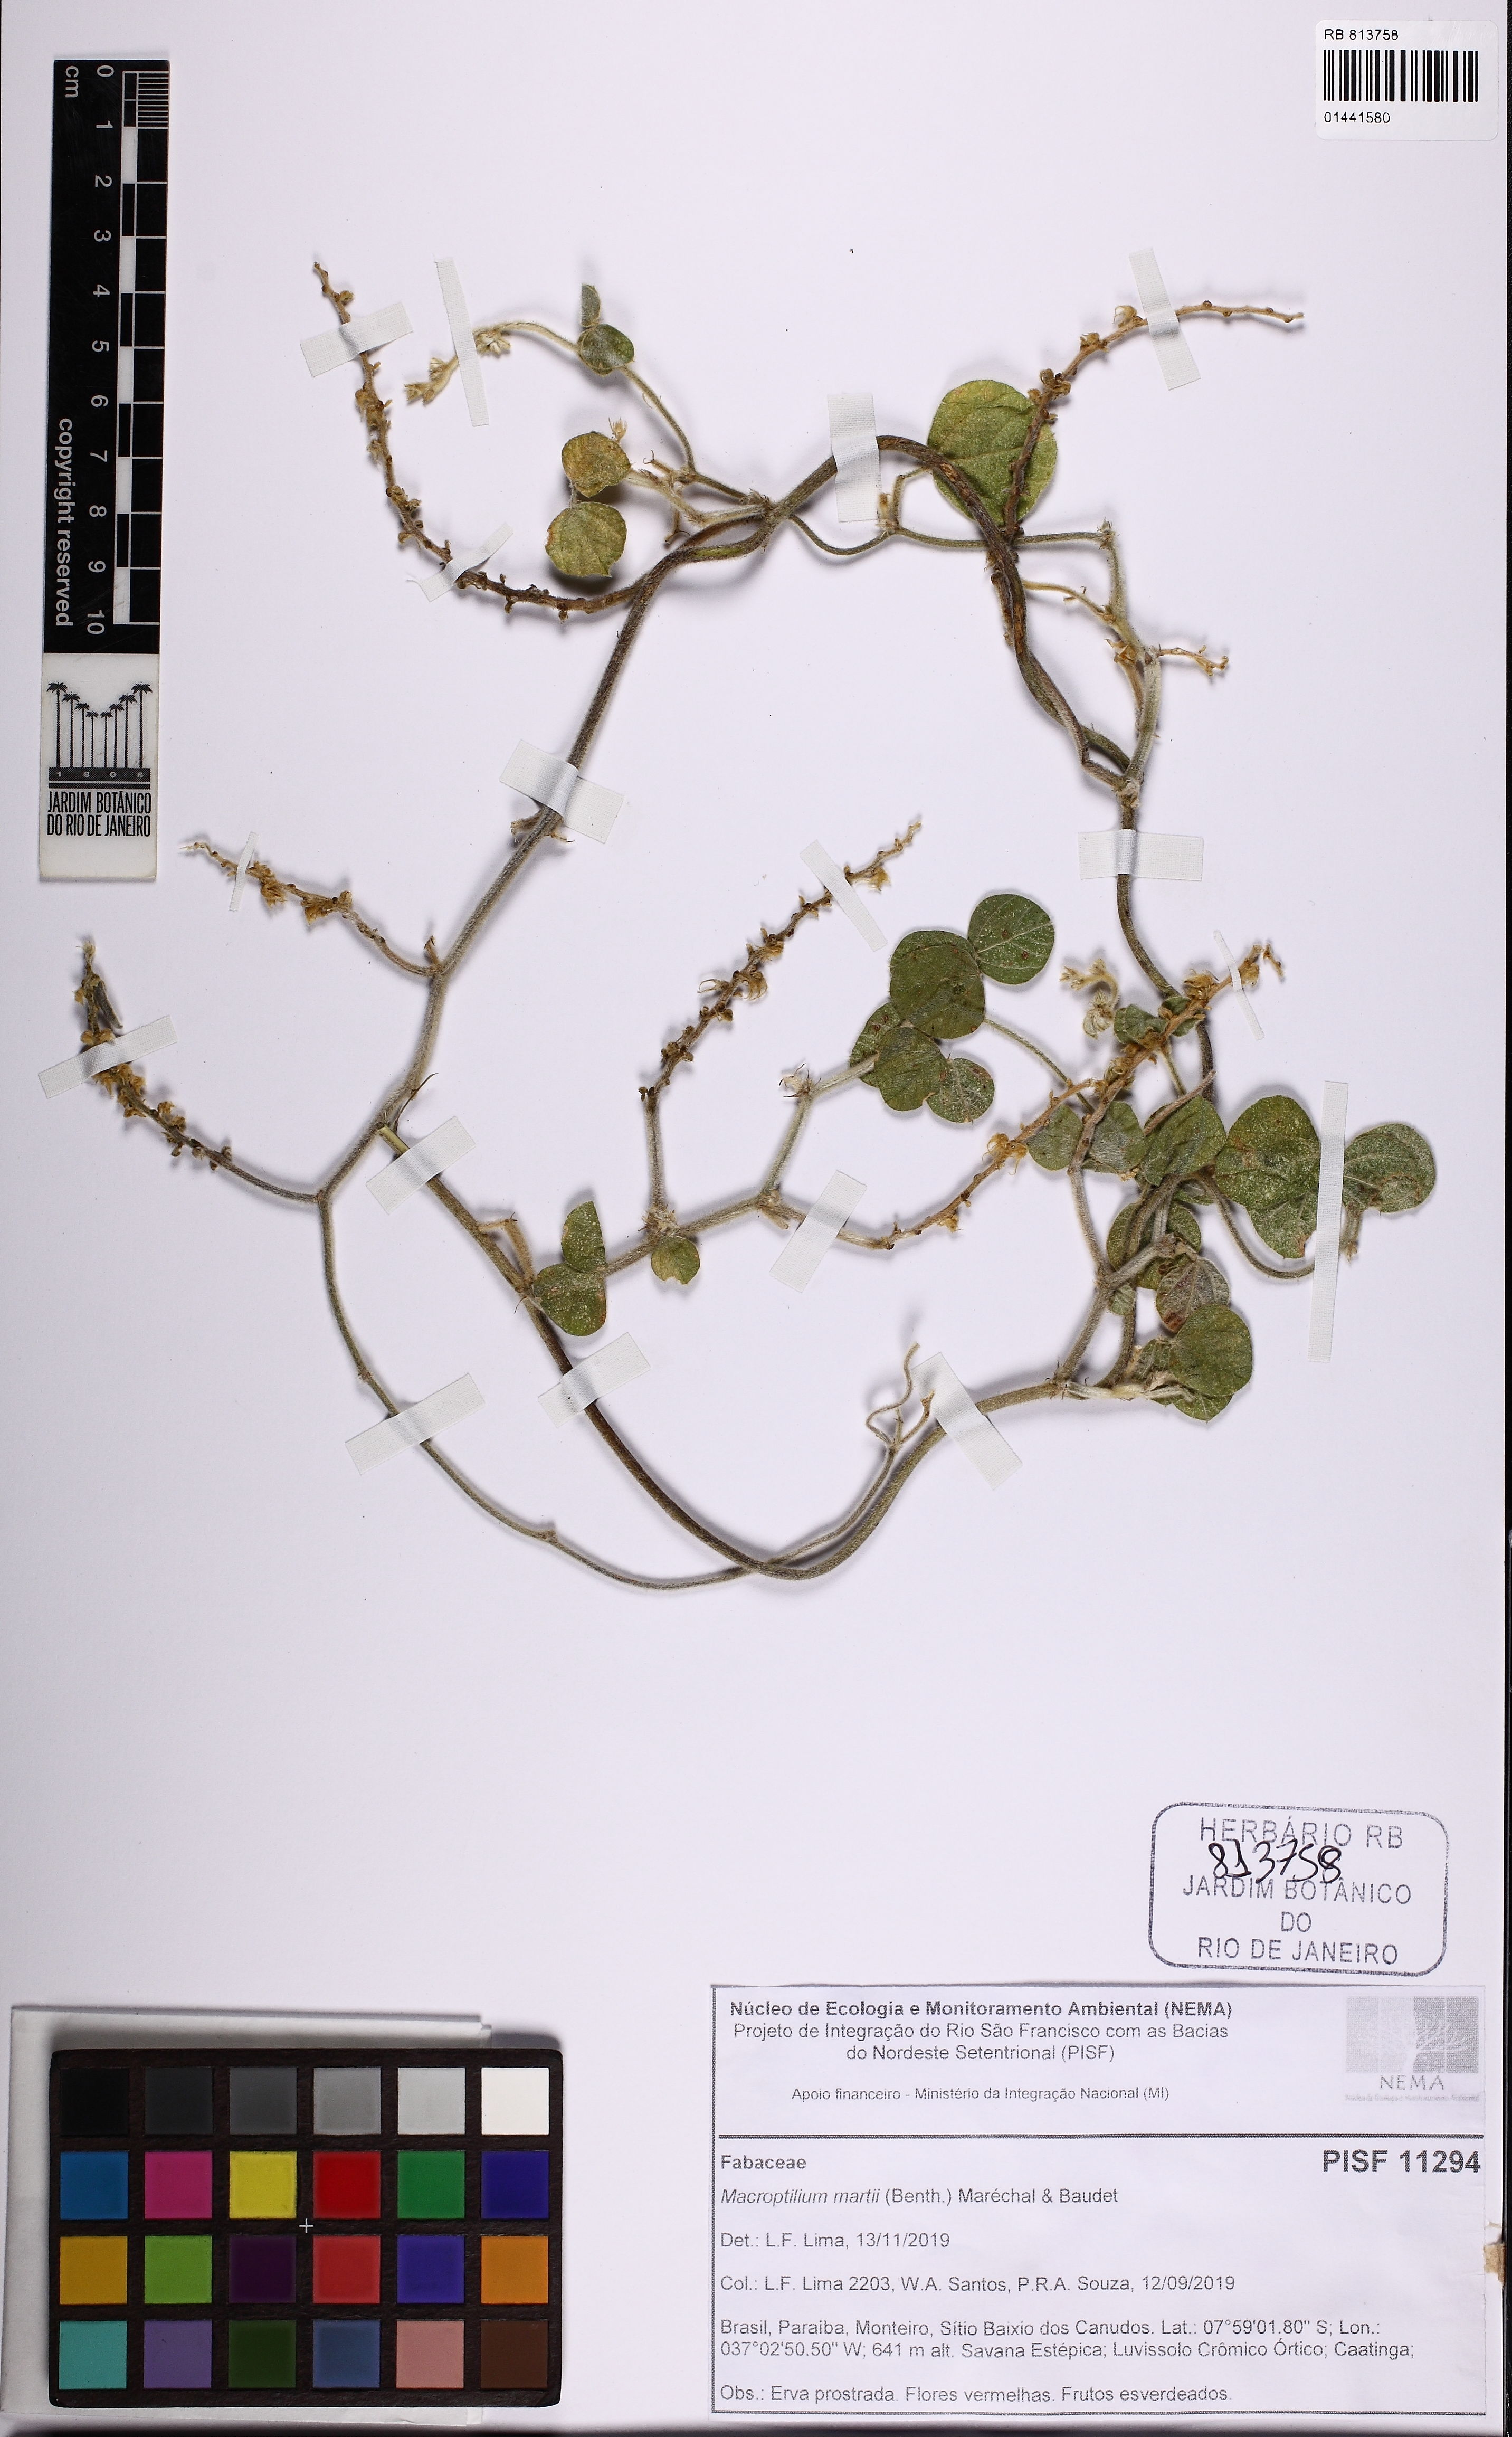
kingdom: Plantae
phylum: Tracheophyta
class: Magnoliopsida
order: Fabales
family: Fabaceae
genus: Macroptilium
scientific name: Macroptilium martii
